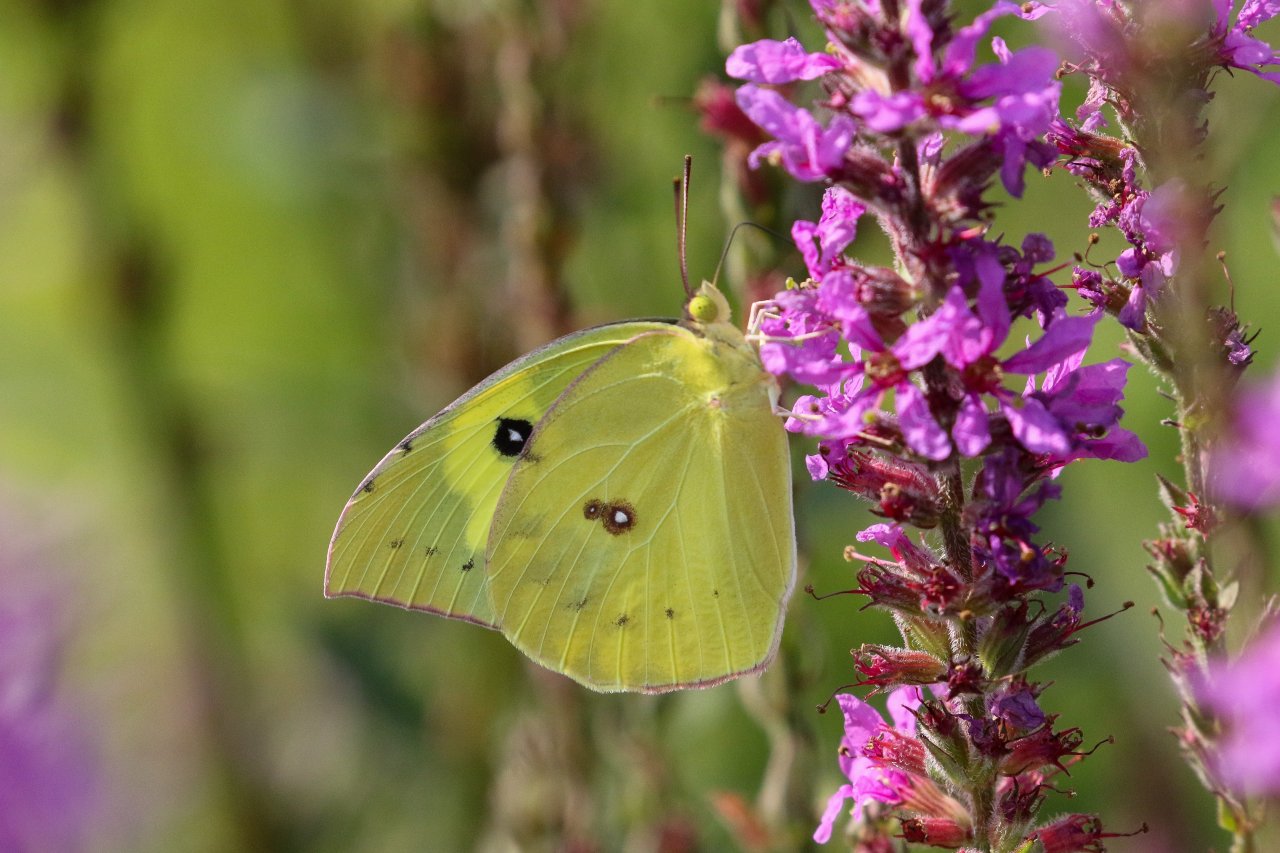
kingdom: Animalia
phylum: Arthropoda
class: Insecta
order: Lepidoptera
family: Pieridae
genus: Zerene
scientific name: Zerene cesonia
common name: Southern Dogface
